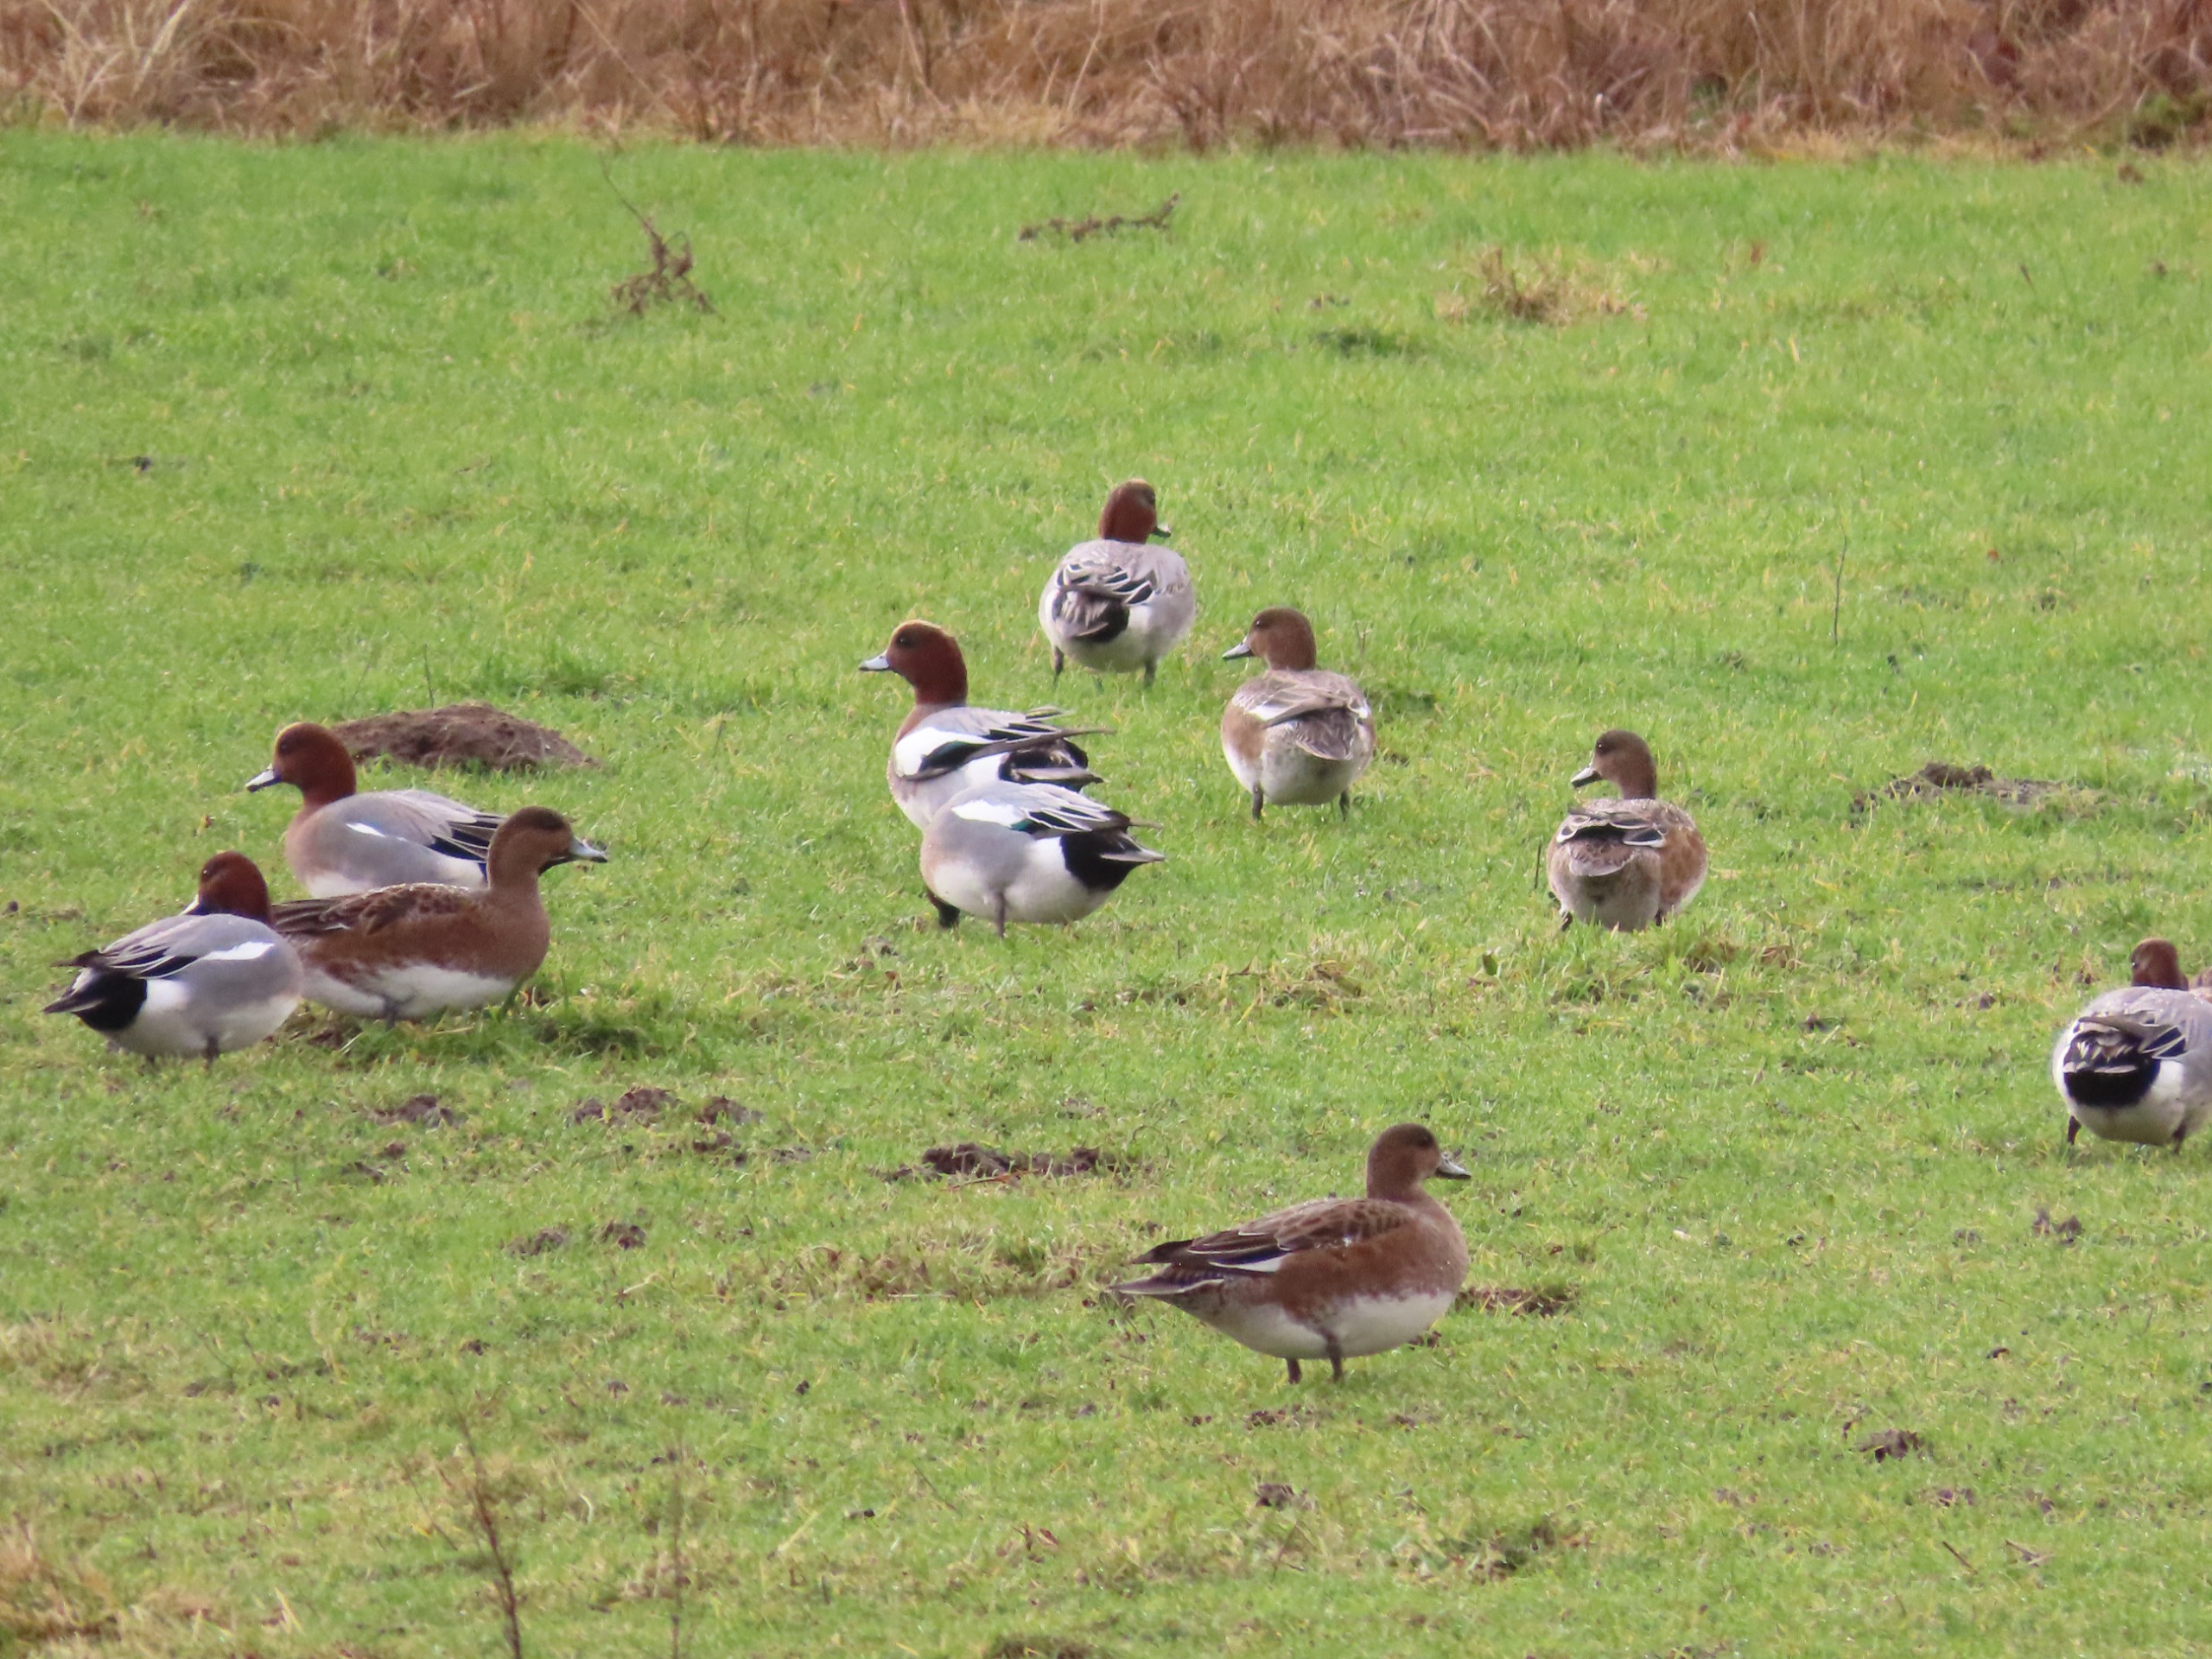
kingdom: Animalia
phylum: Chordata
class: Aves
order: Anseriformes
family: Anatidae
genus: Mareca
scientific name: Mareca penelope
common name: Pibeand
